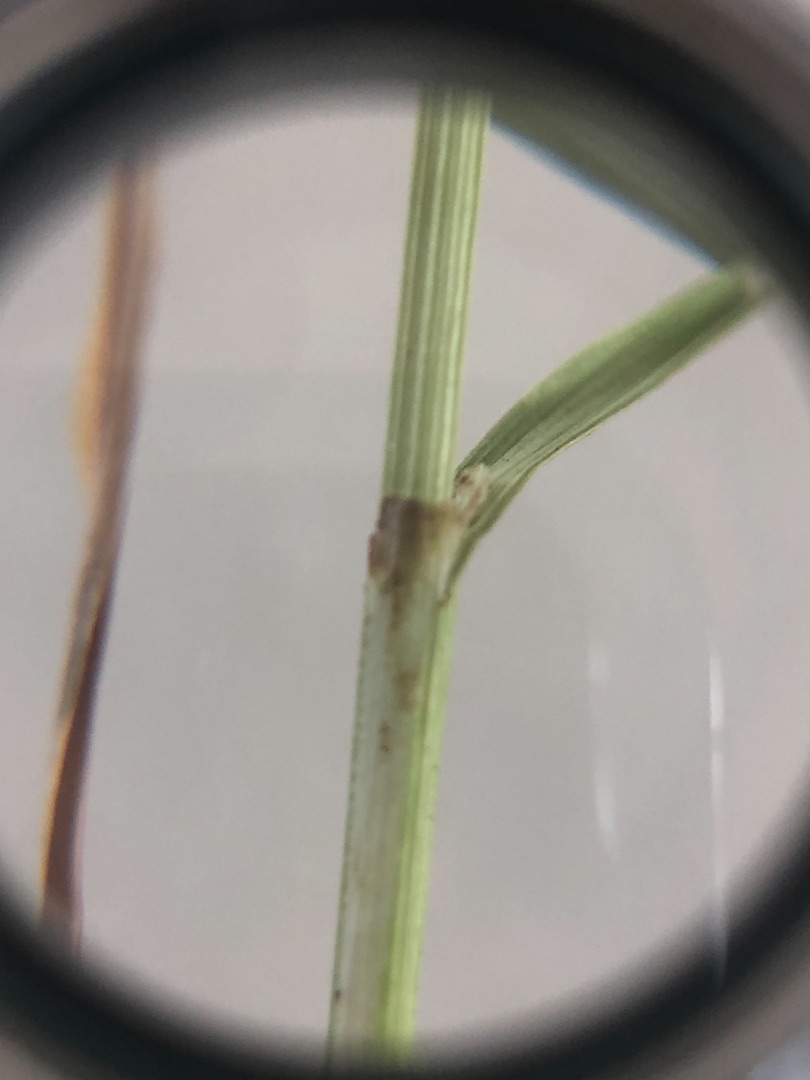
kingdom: Plantae
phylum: Tracheophyta
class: Liliopsida
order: Poales
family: Cyperaceae
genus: Carex
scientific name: Carex leporina
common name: Hare-star
